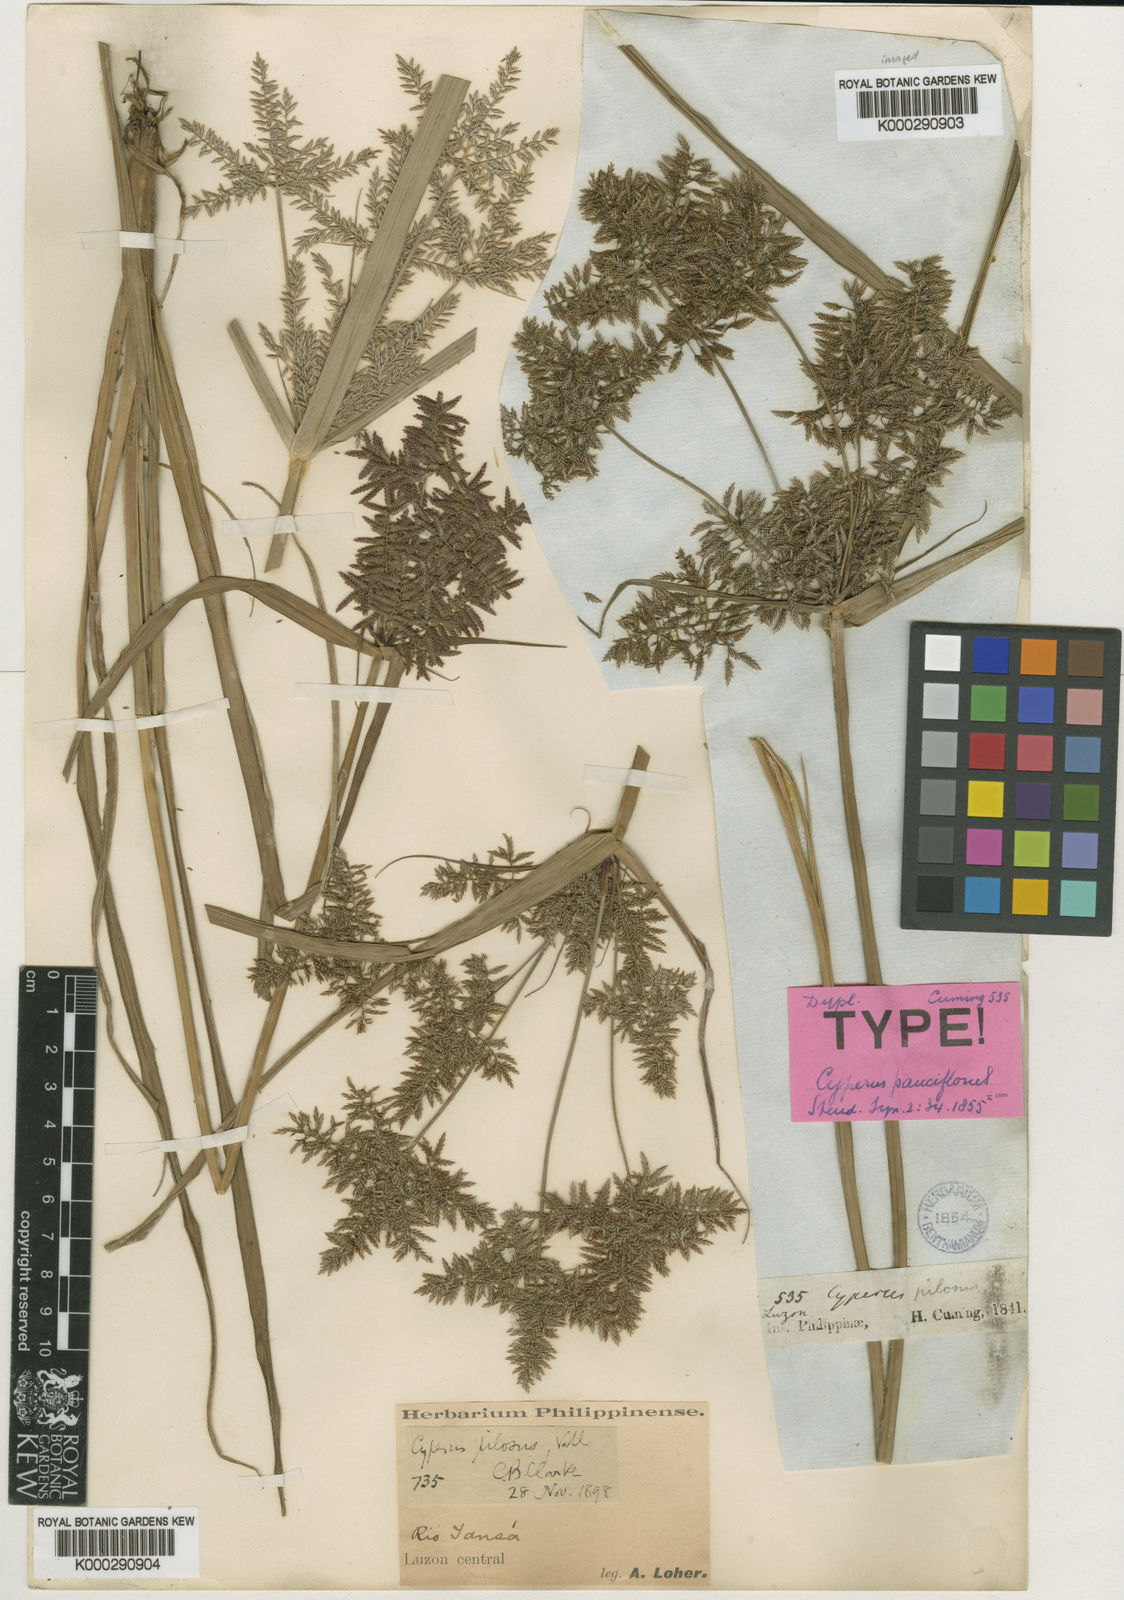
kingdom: Plantae
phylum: Tracheophyta
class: Liliopsida
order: Poales
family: Cyperaceae
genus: Cyperus
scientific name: Cyperus pilosus
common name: Fuzzy flatsedge
